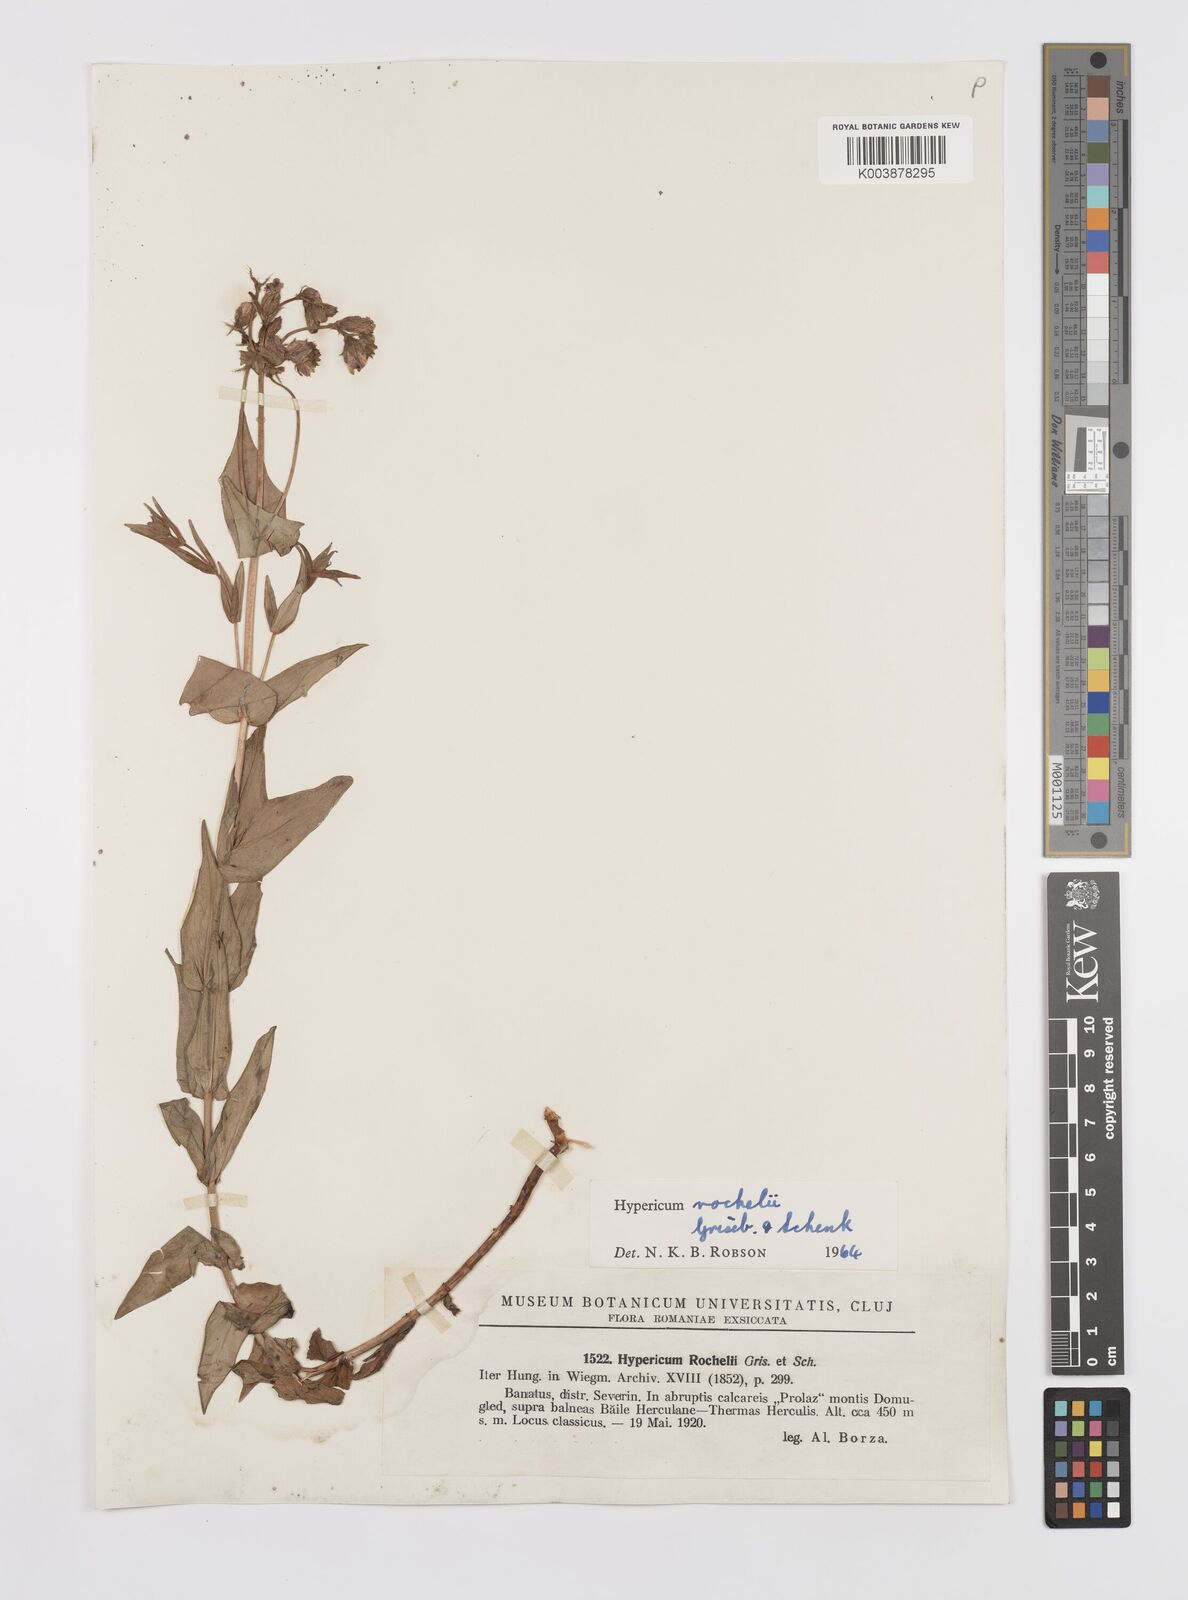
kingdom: Plantae
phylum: Tracheophyta
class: Magnoliopsida
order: Malpighiales
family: Hypericaceae
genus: Hypericum
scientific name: Hypericum rochelii
